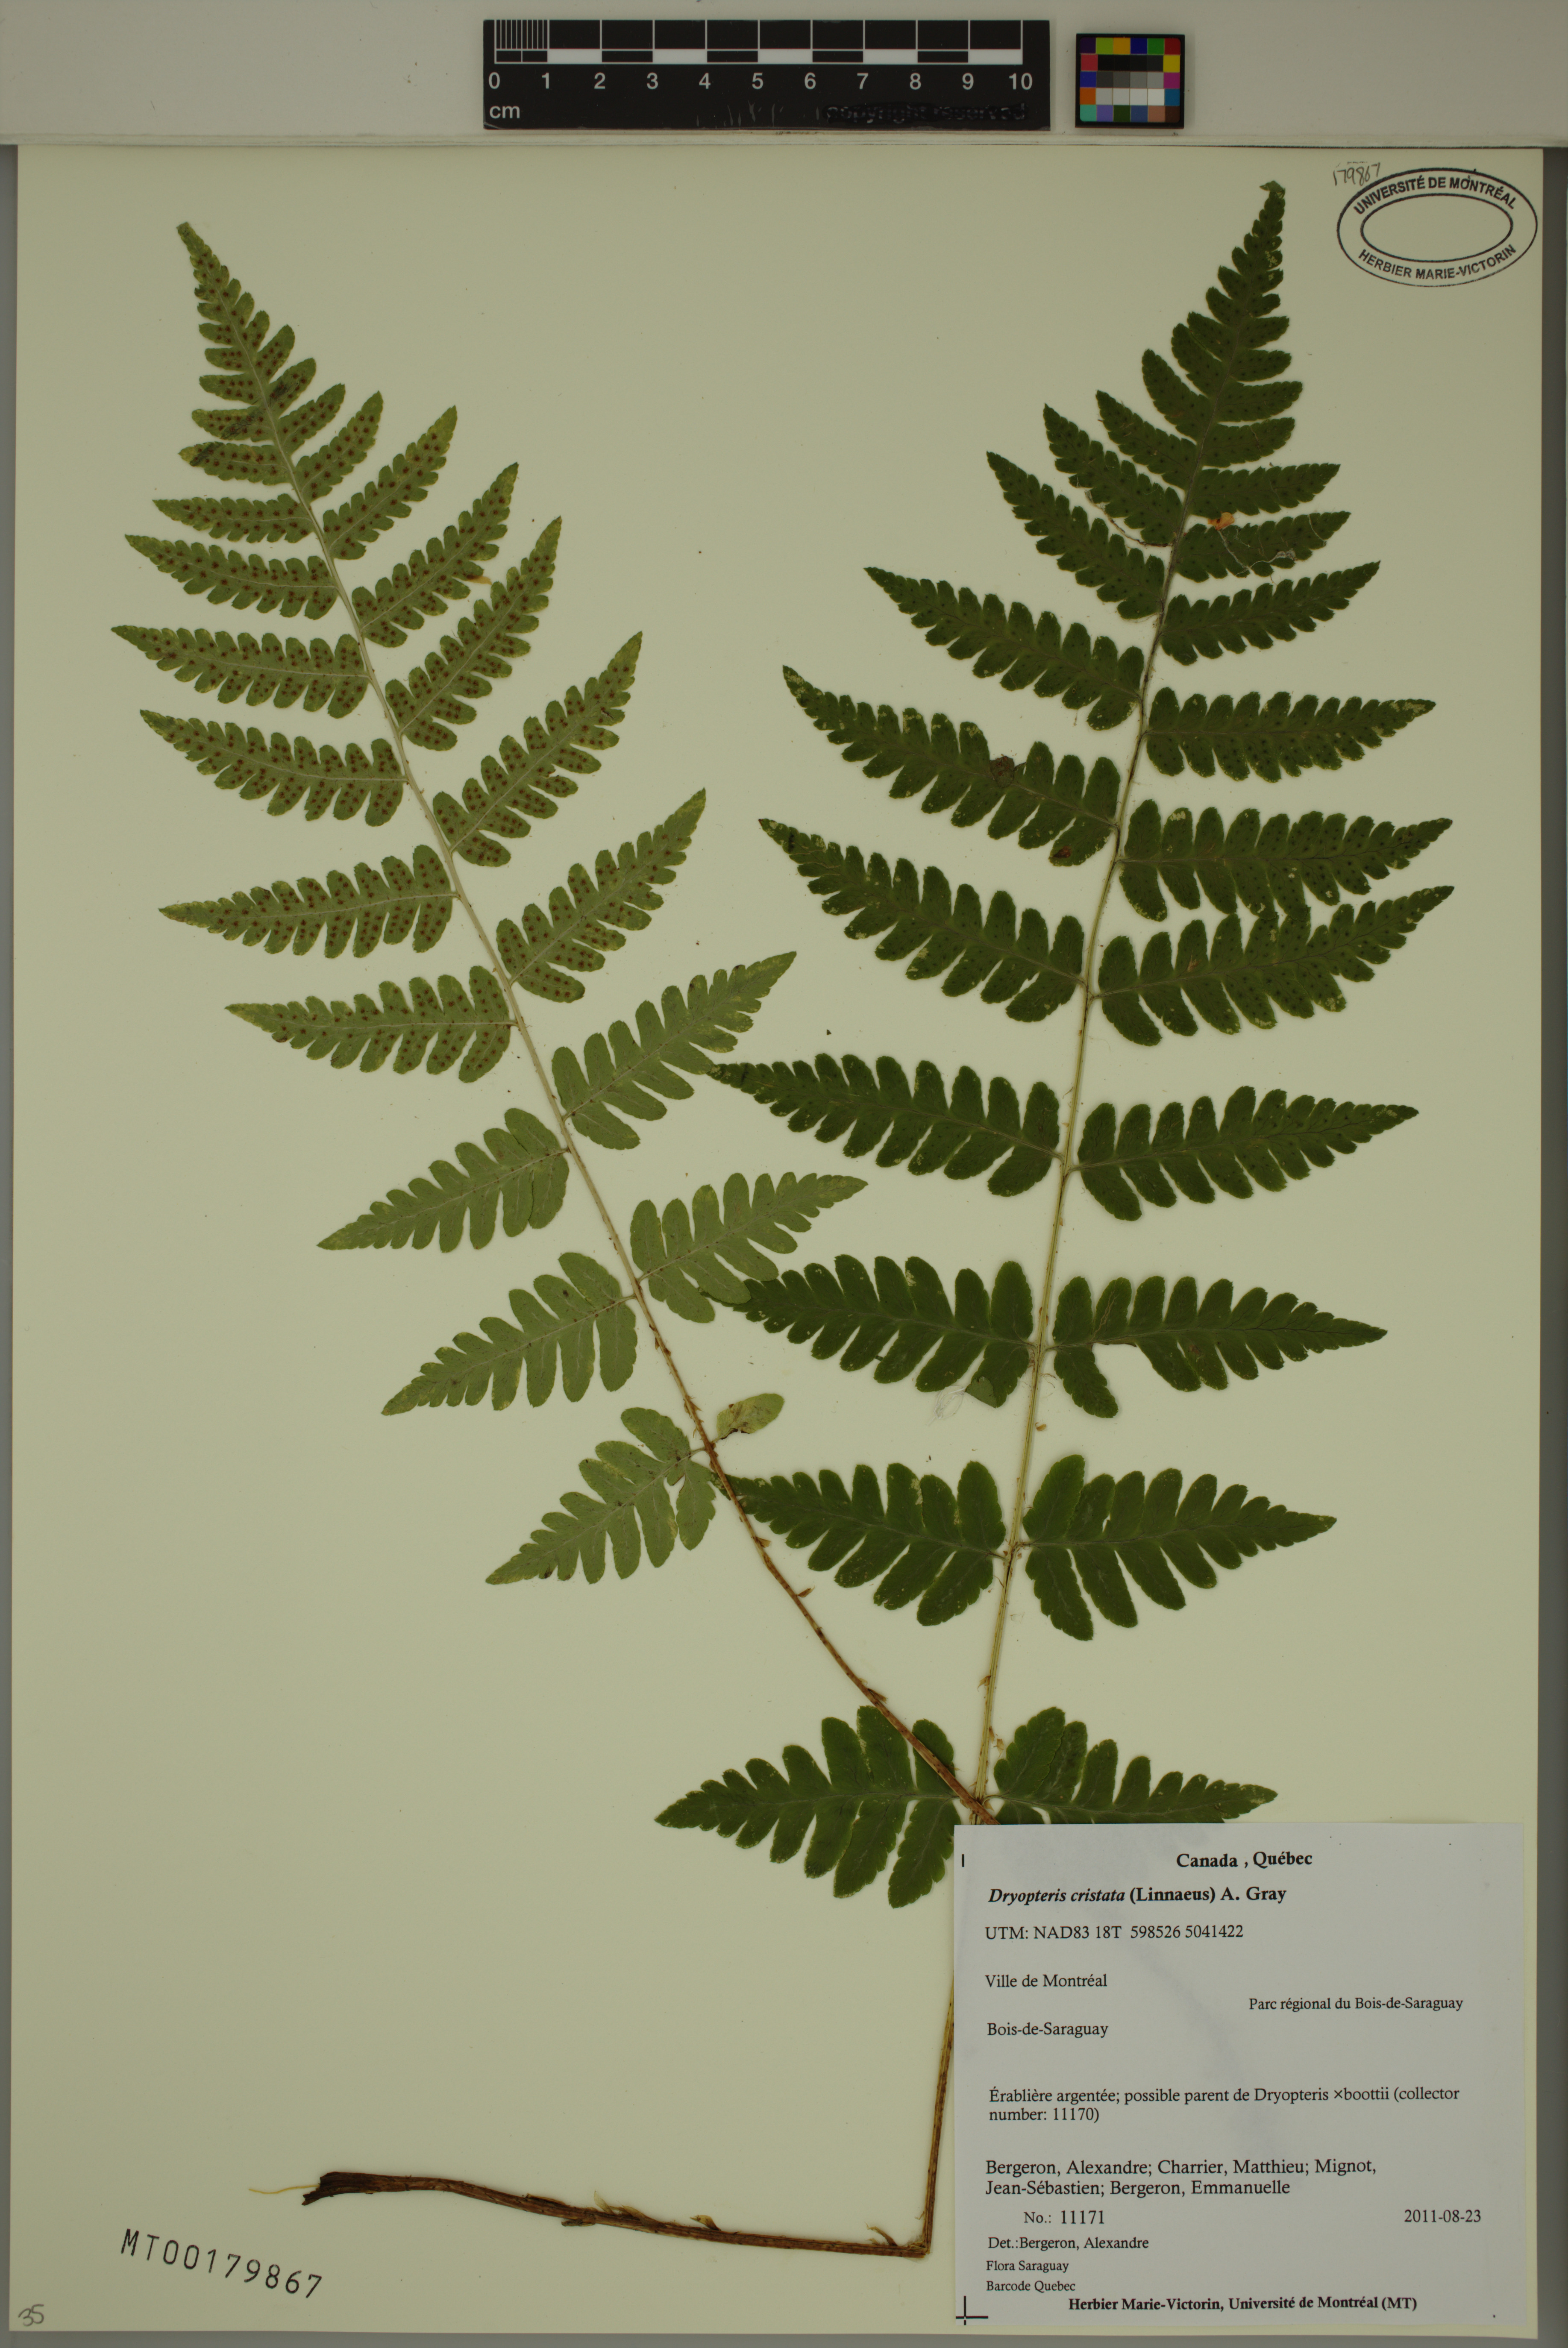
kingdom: Plantae
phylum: Tracheophyta
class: Polypodiopsida
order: Polypodiales
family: Dryopteridaceae
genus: Dryopteris
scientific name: Dryopteris cristata
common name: Crested wood fern
